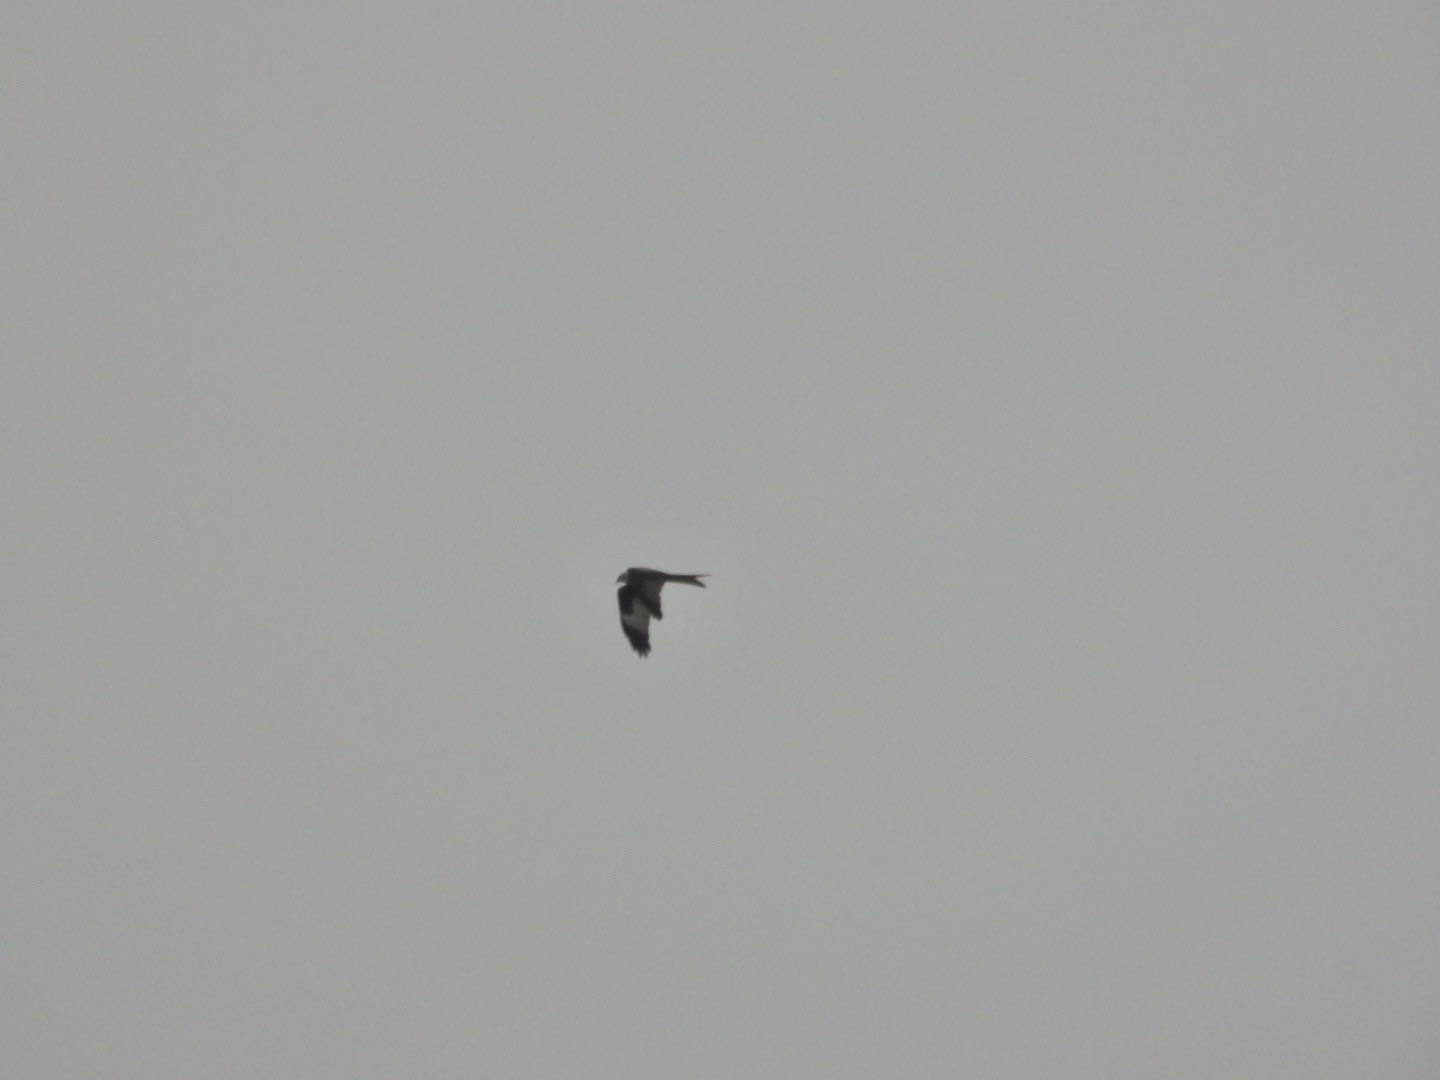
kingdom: Animalia
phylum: Chordata
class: Aves
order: Accipitriformes
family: Accipitridae
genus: Milvus
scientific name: Milvus milvus
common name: Rød glente
